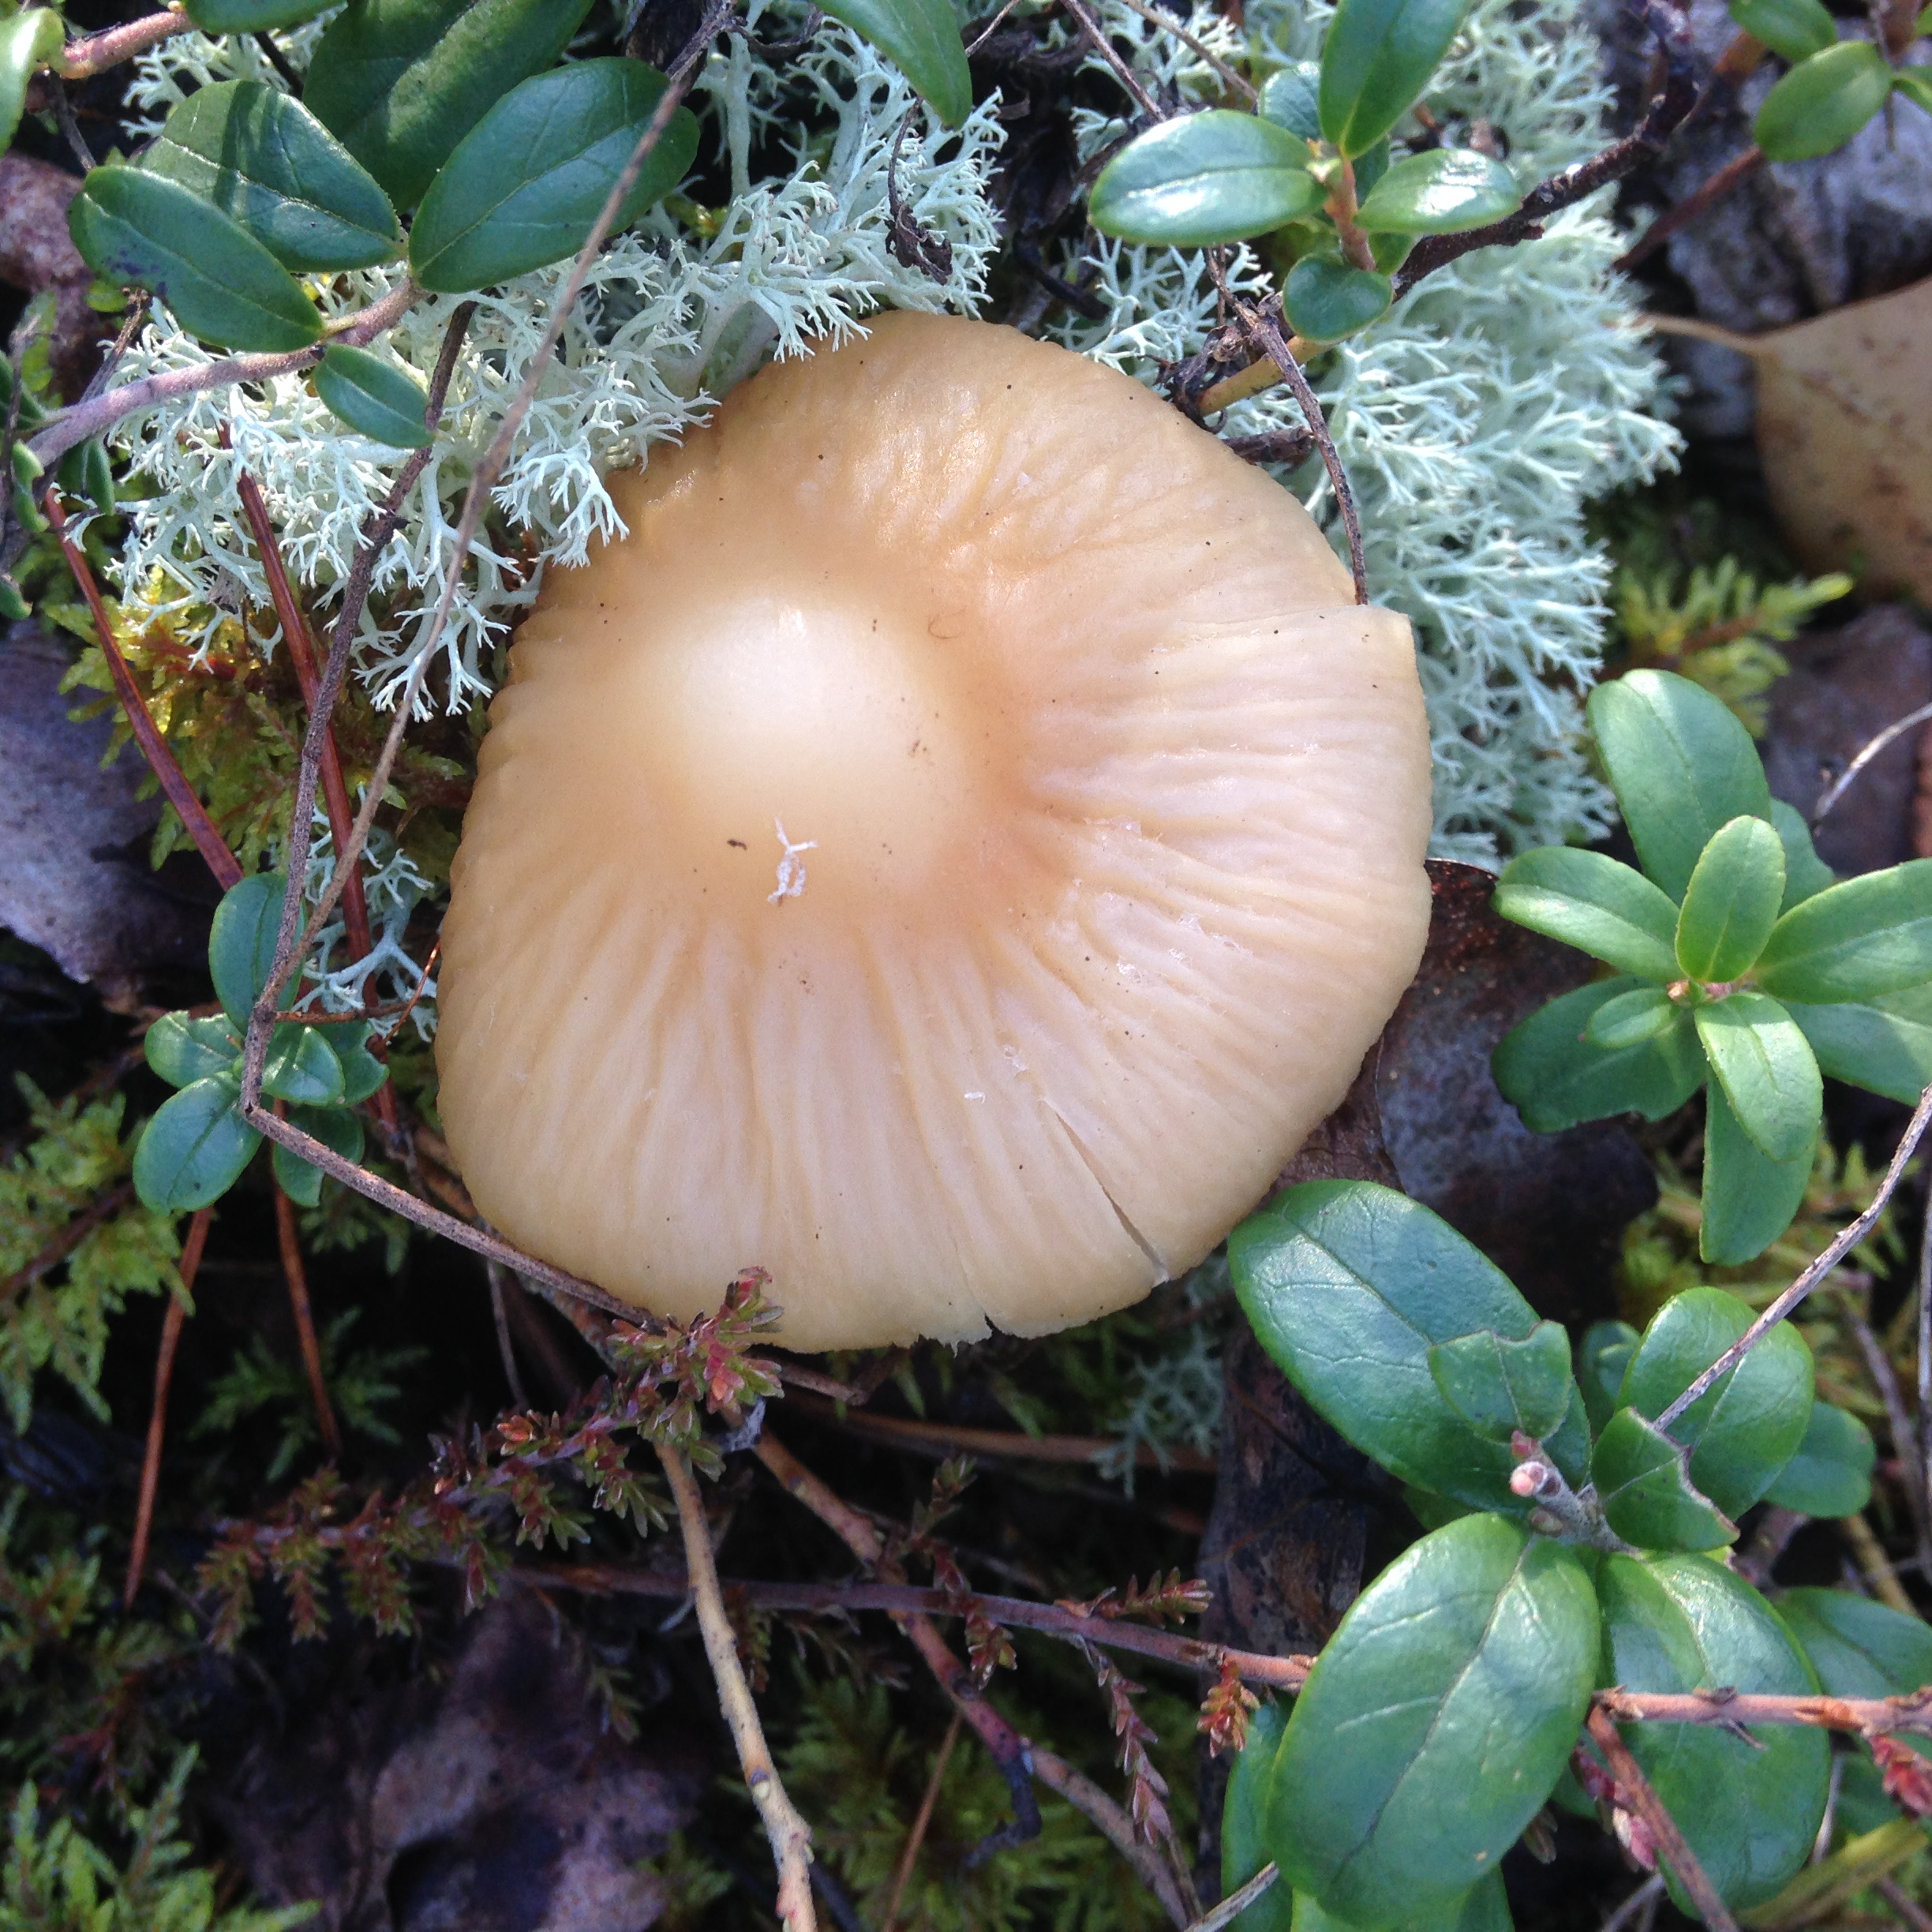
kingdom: Fungi
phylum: Basidiomycota
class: Agaricomycetes
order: Agaricales
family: Cortinariaceae
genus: Cortinarius
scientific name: Cortinarius caperatus
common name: The gypsy
